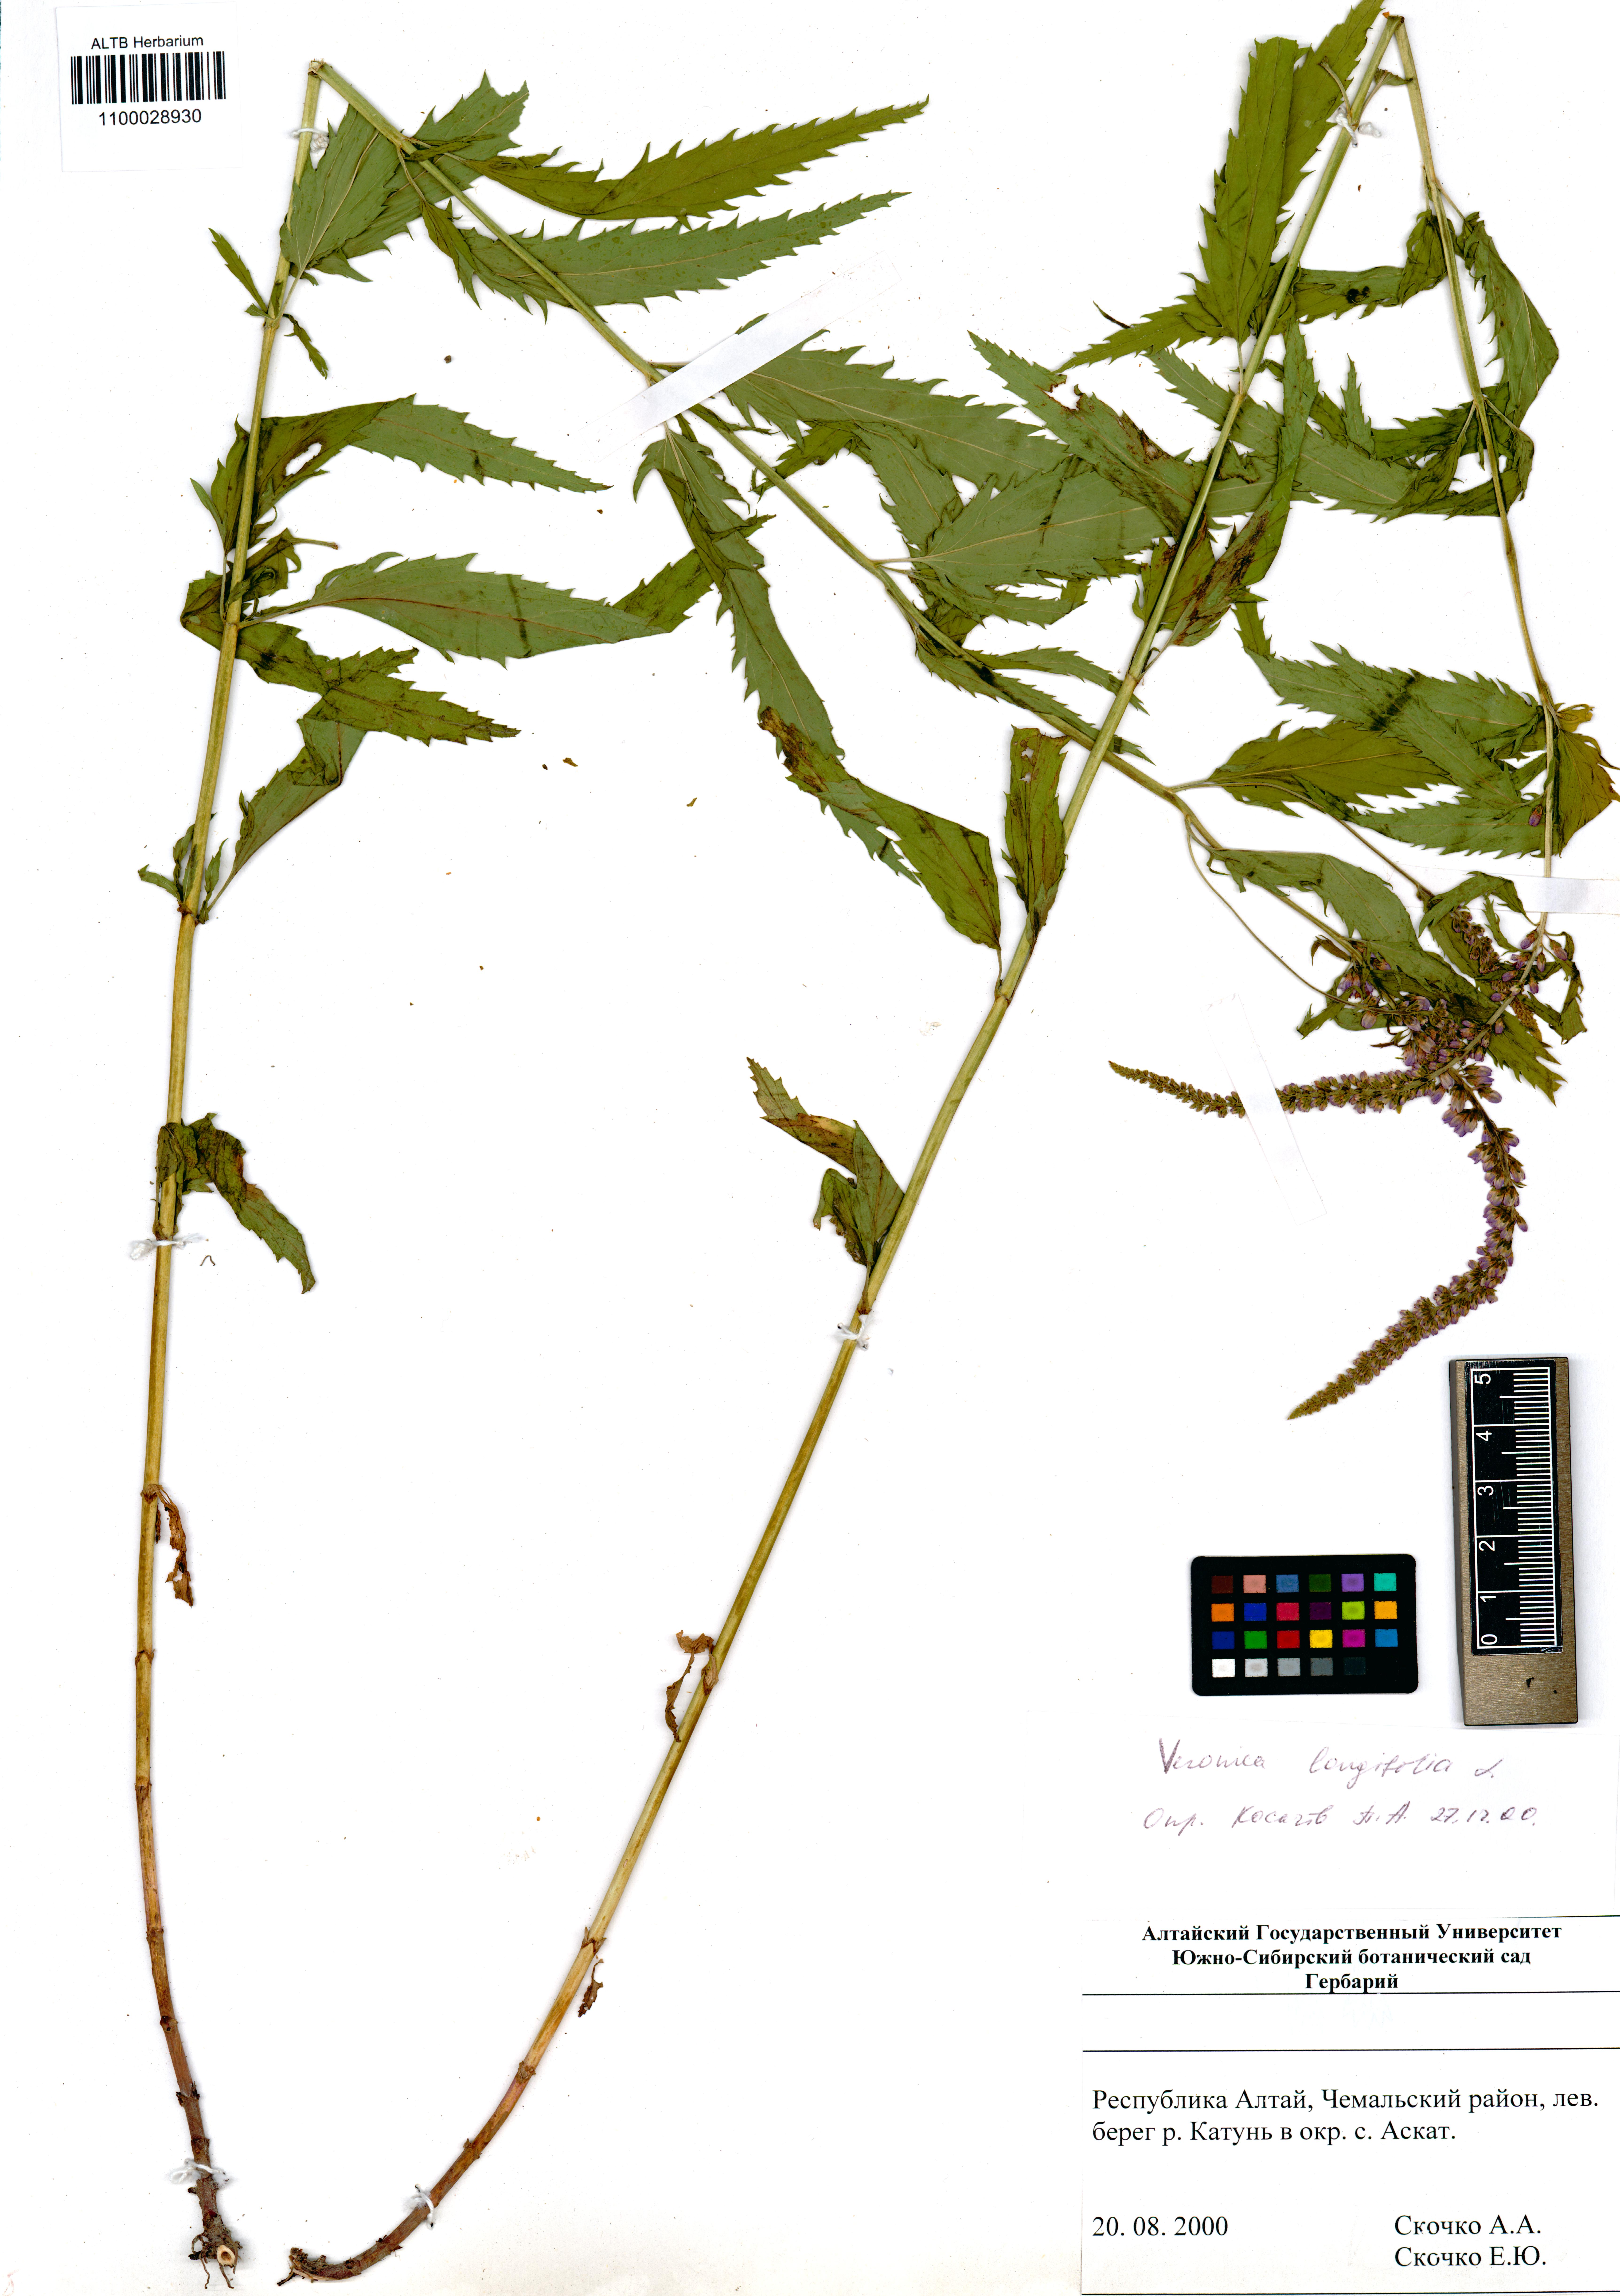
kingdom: Plantae
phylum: Tracheophyta
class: Magnoliopsida
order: Lamiales
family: Plantaginaceae
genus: Veronica
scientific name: Veronica longifolia
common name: Garden speedwell
